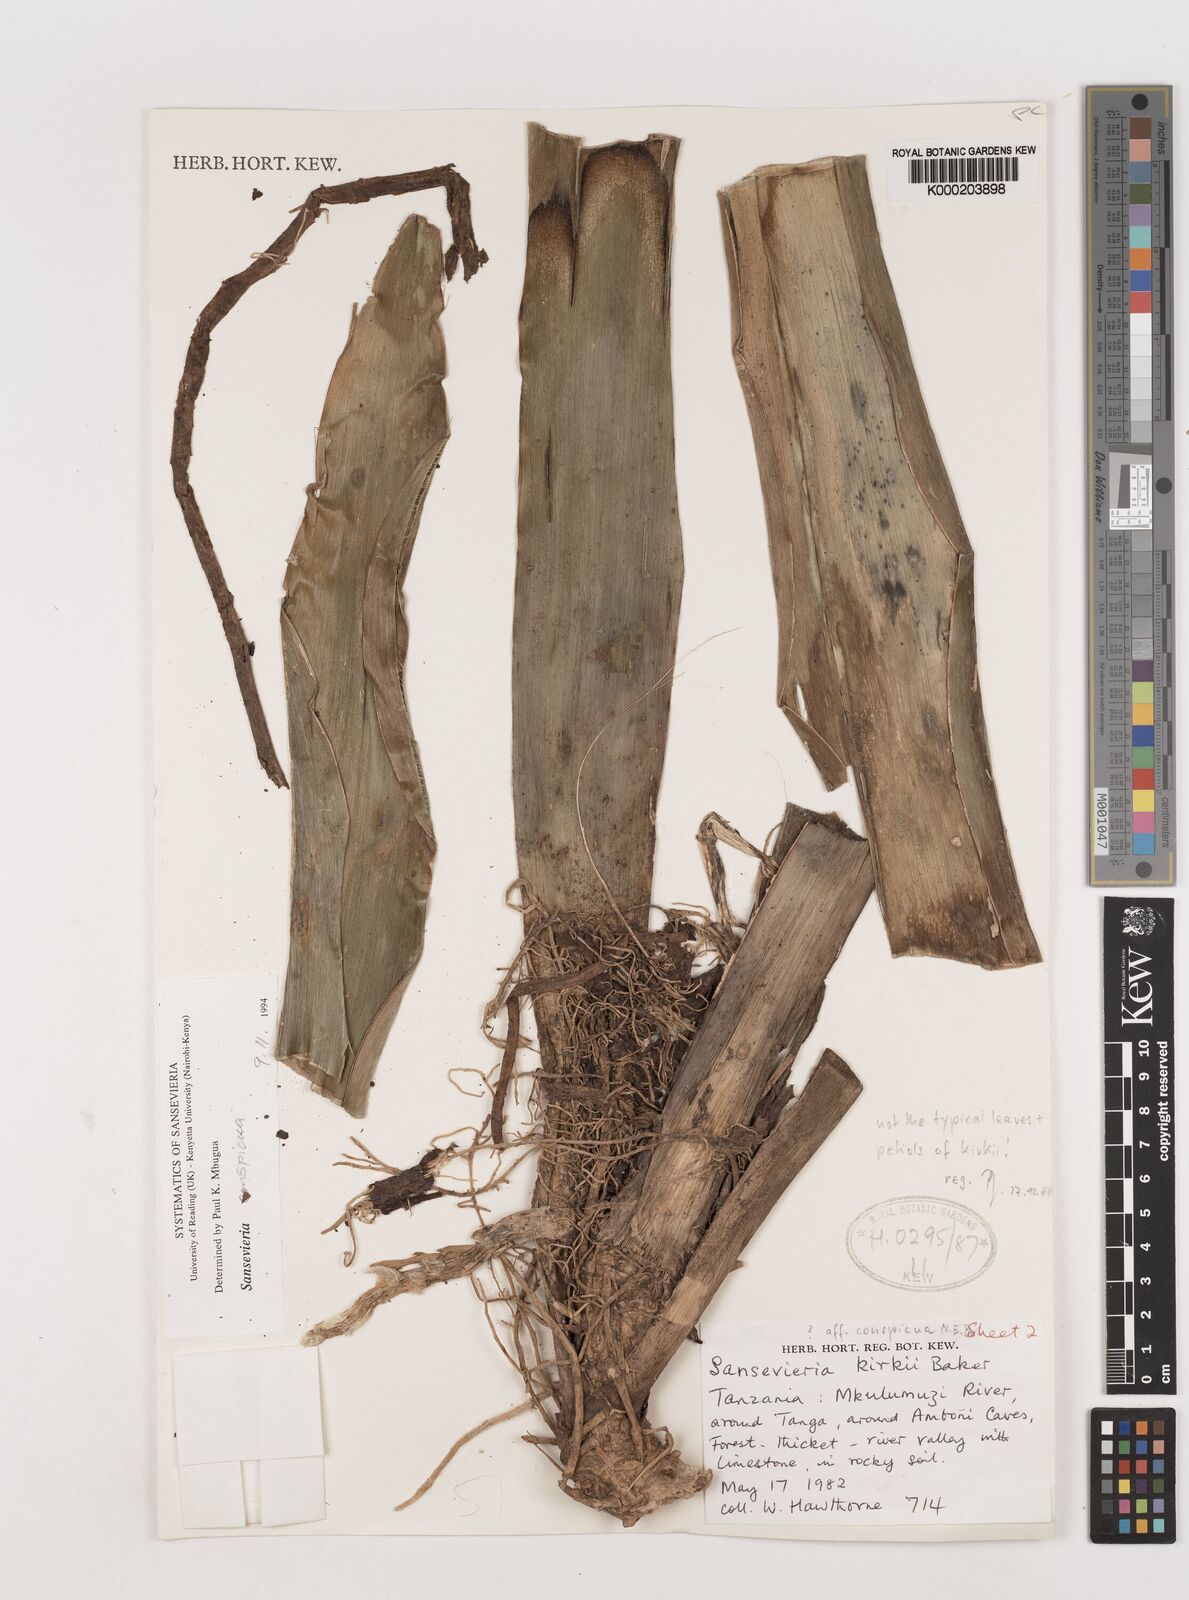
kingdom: Plantae
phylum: Tracheophyta
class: Liliopsida
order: Asparagales
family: Asparagaceae
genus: Dracaena
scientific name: Dracaena conspicua
